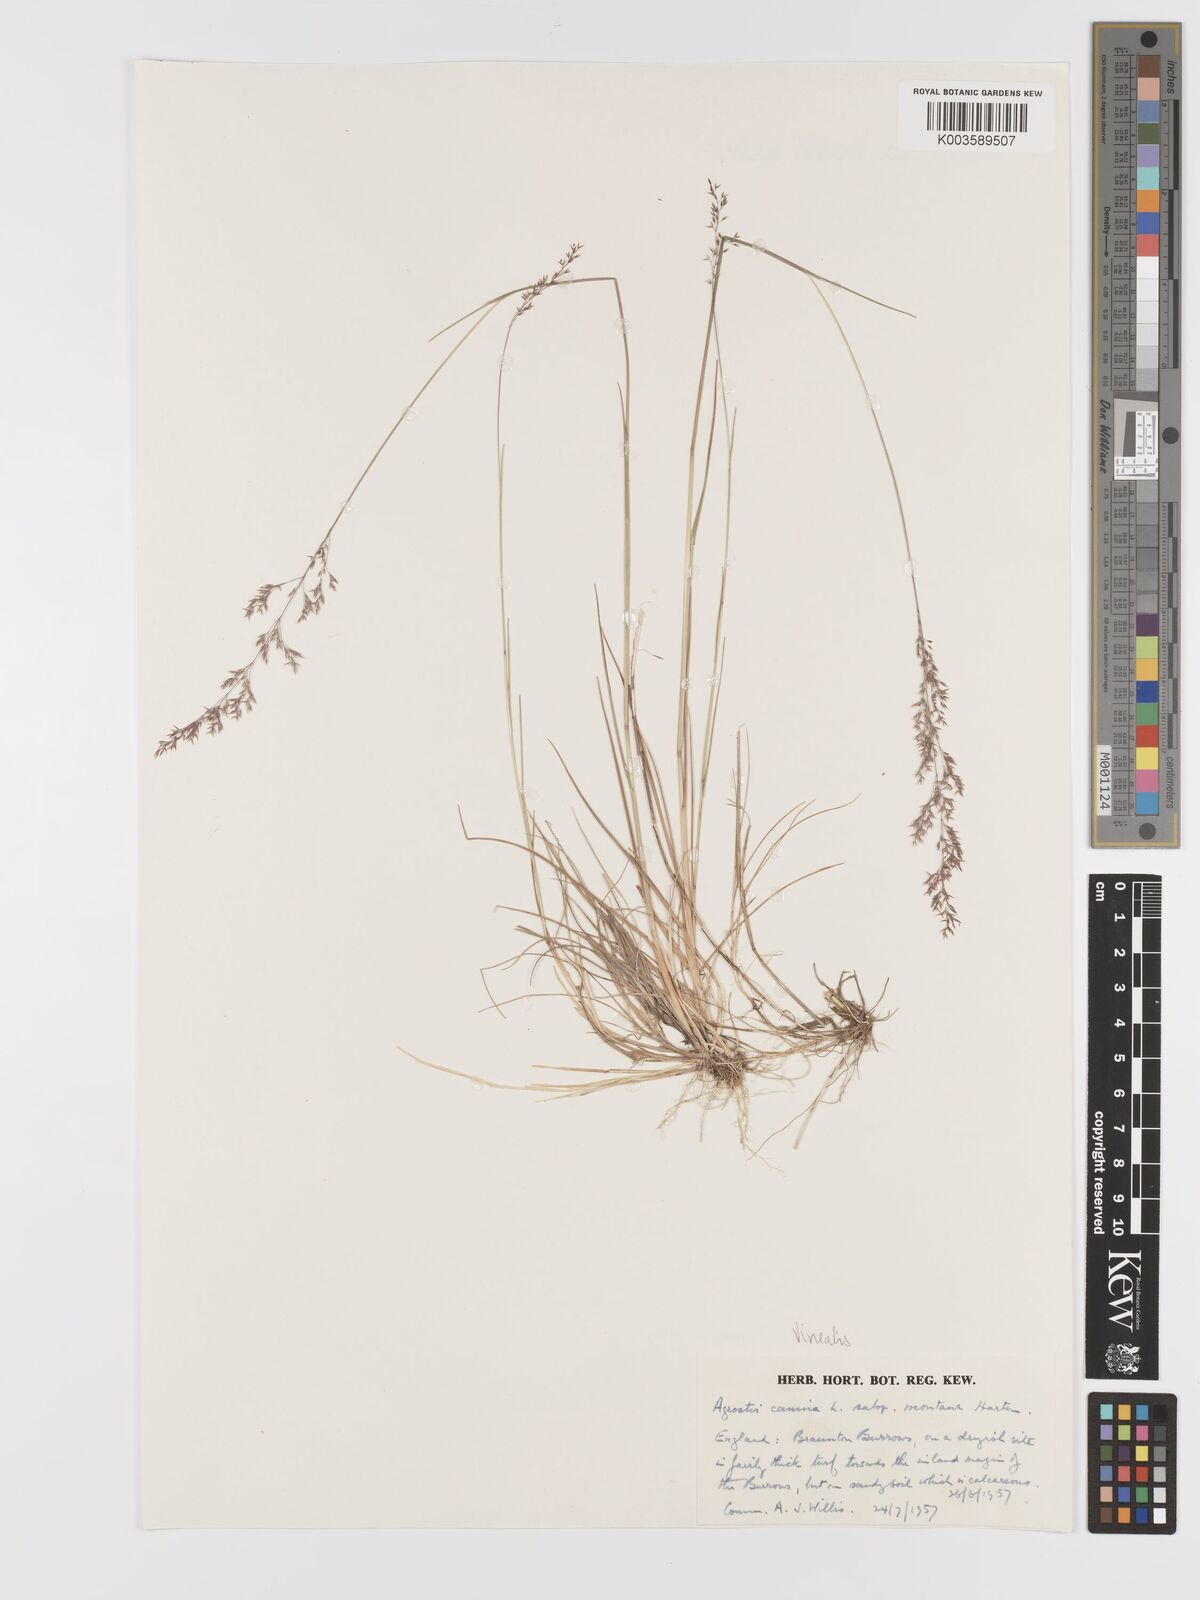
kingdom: Plantae
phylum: Tracheophyta
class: Liliopsida
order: Poales
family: Poaceae
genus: Agrostis
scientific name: Agrostis
